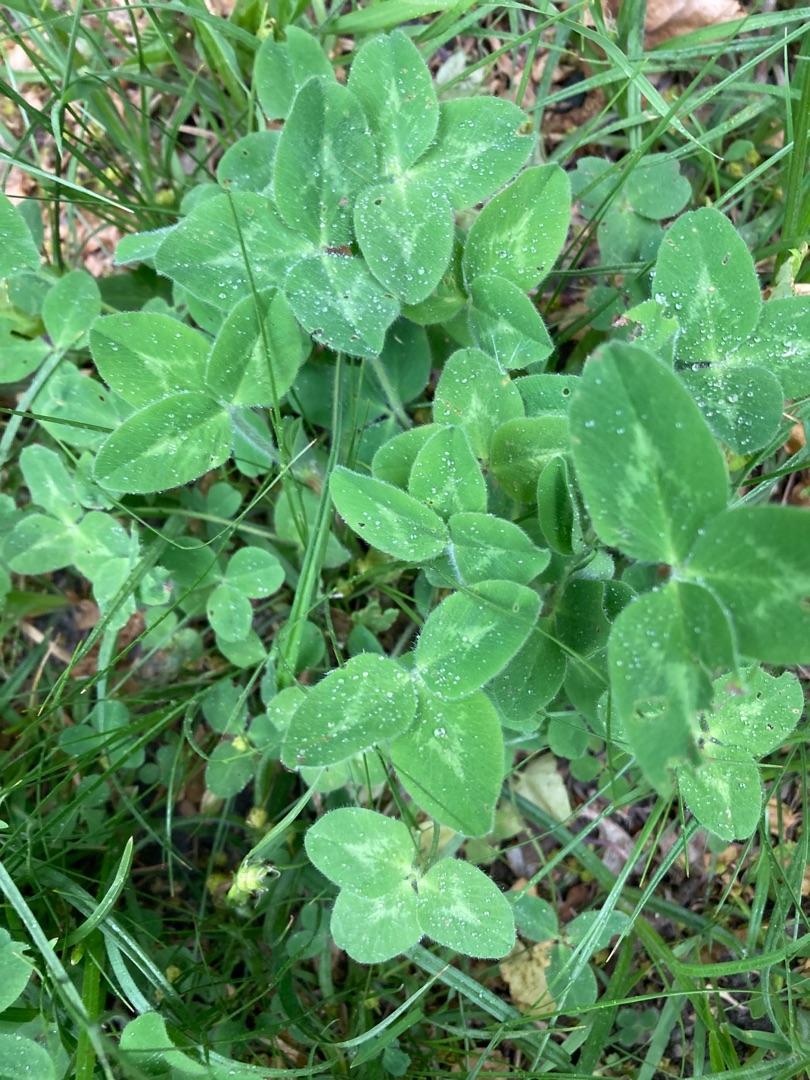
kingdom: Plantae
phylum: Tracheophyta
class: Magnoliopsida
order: Fabales
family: Fabaceae
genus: Trifolium
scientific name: Trifolium pratense
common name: Rød-kløver
